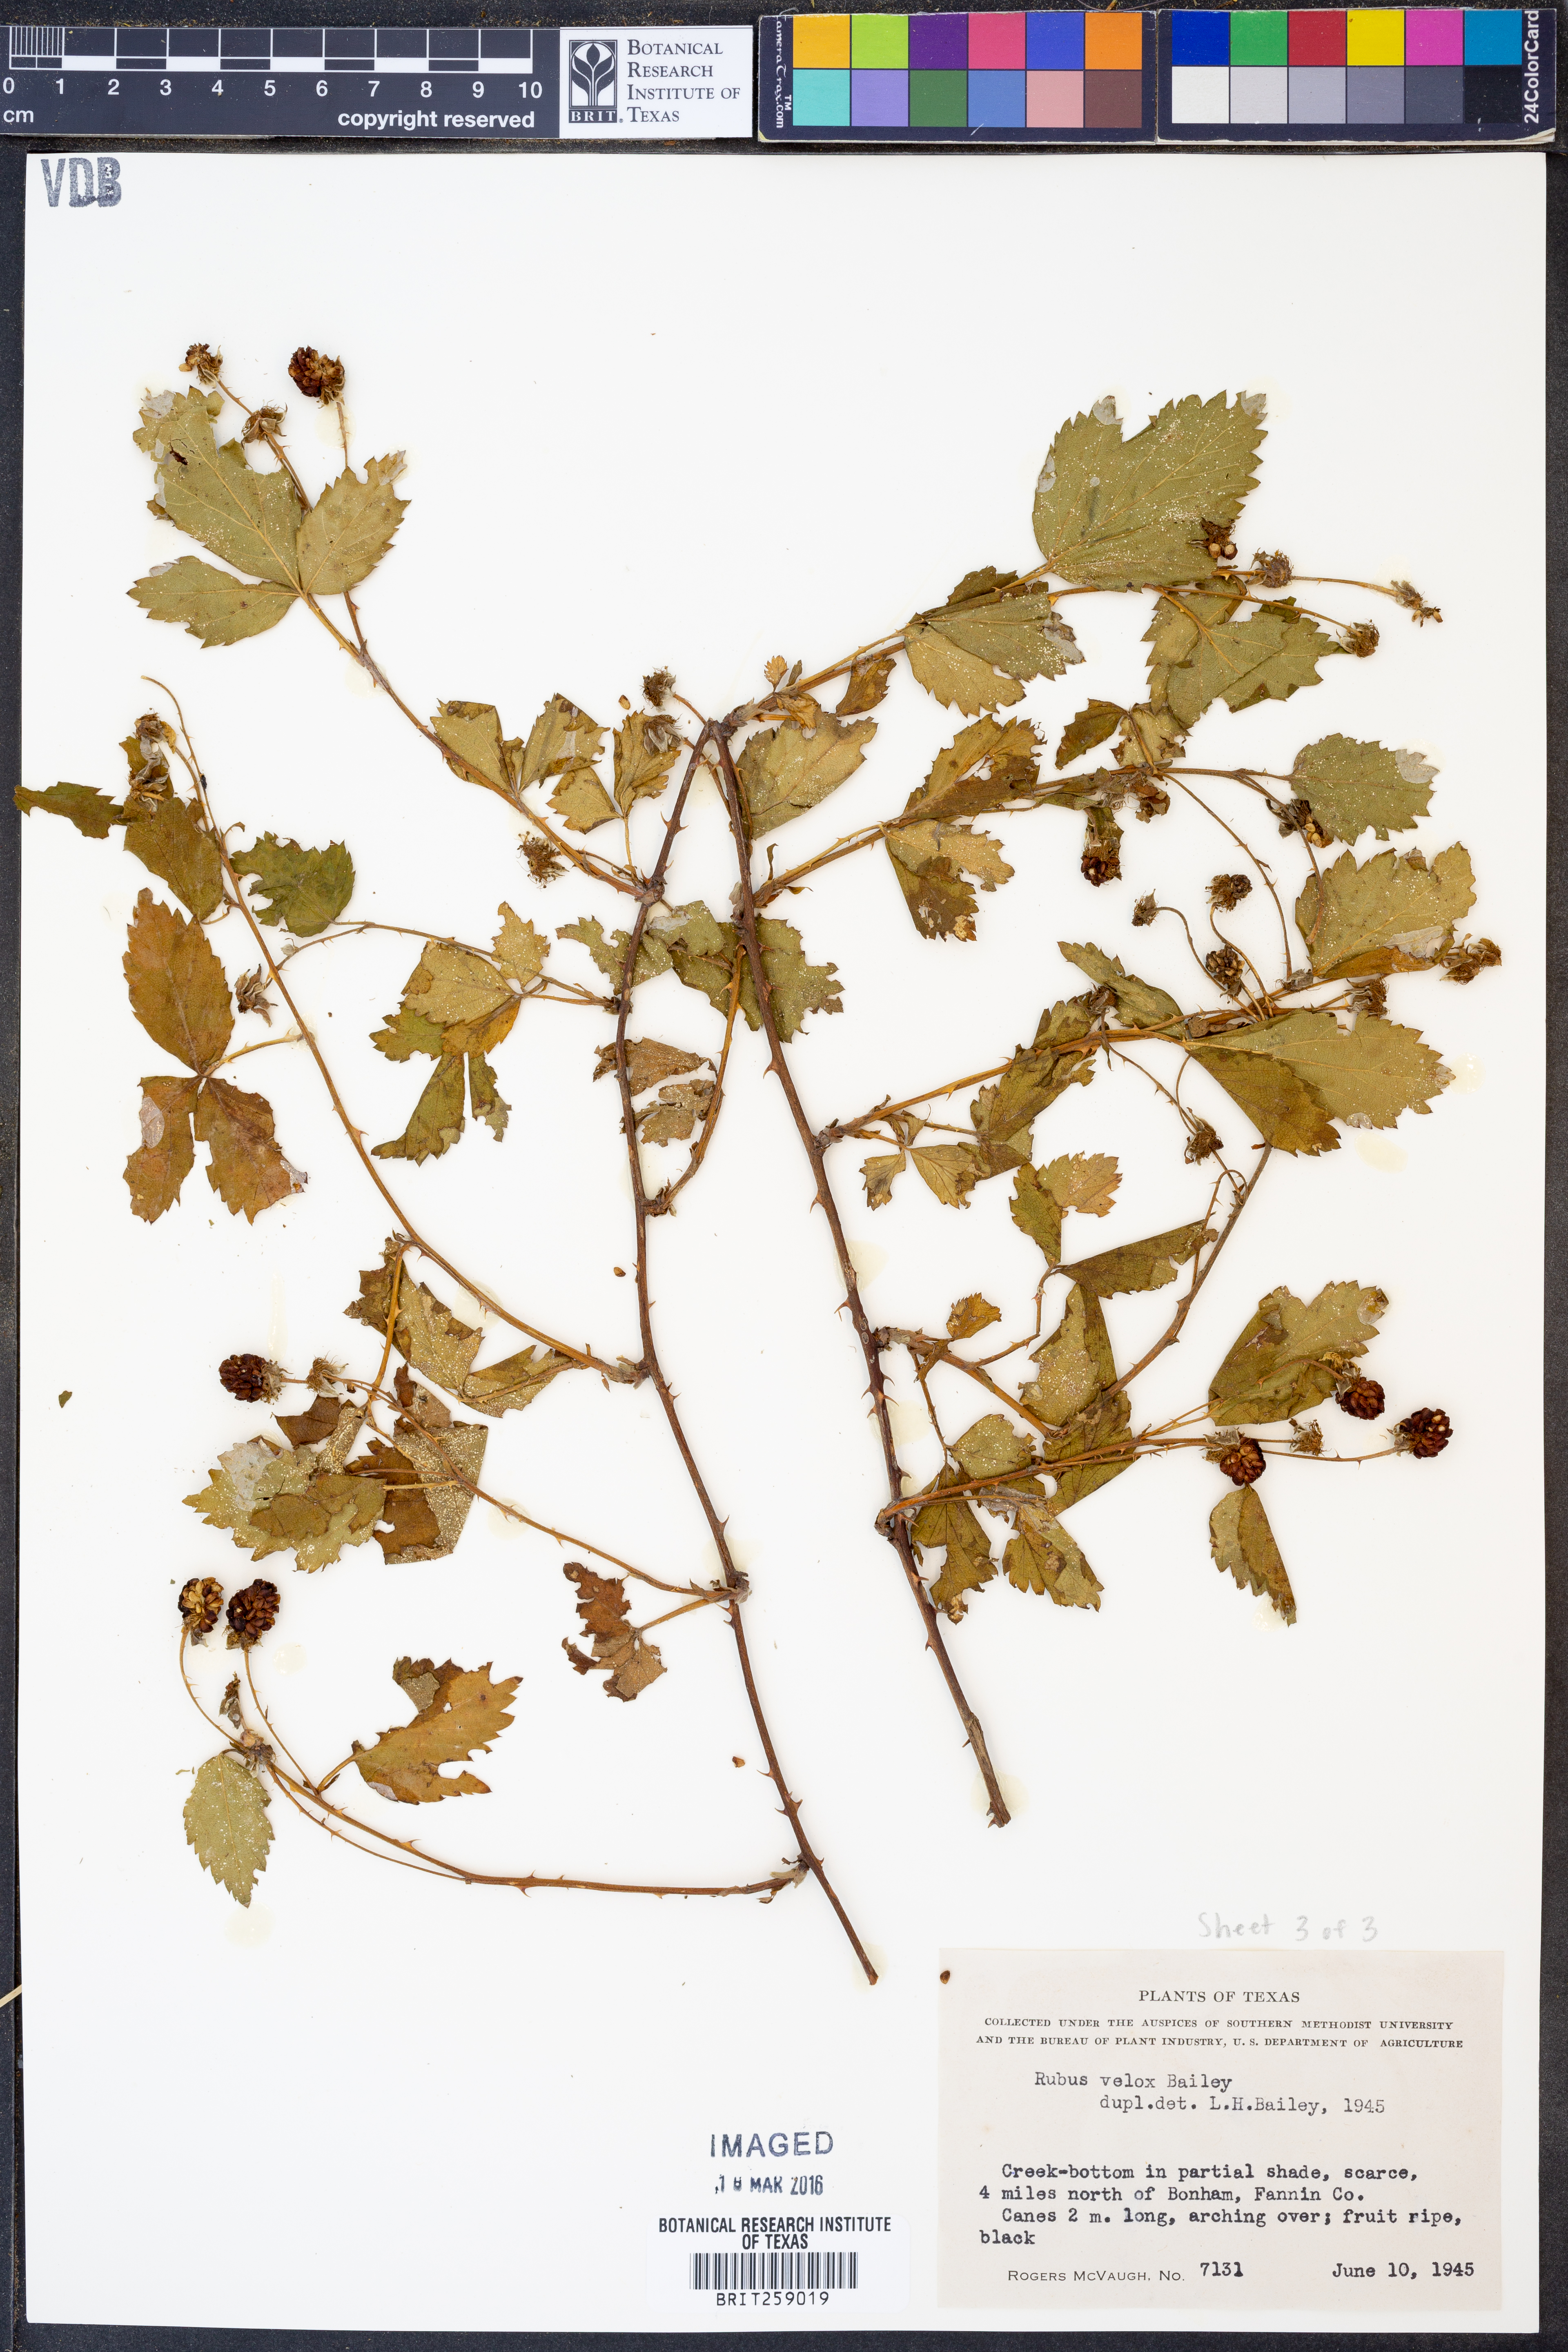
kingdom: Plantae
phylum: Tracheophyta
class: Magnoliopsida
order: Rosales
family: Rosaceae
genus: Rubus
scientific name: Rubus velox
